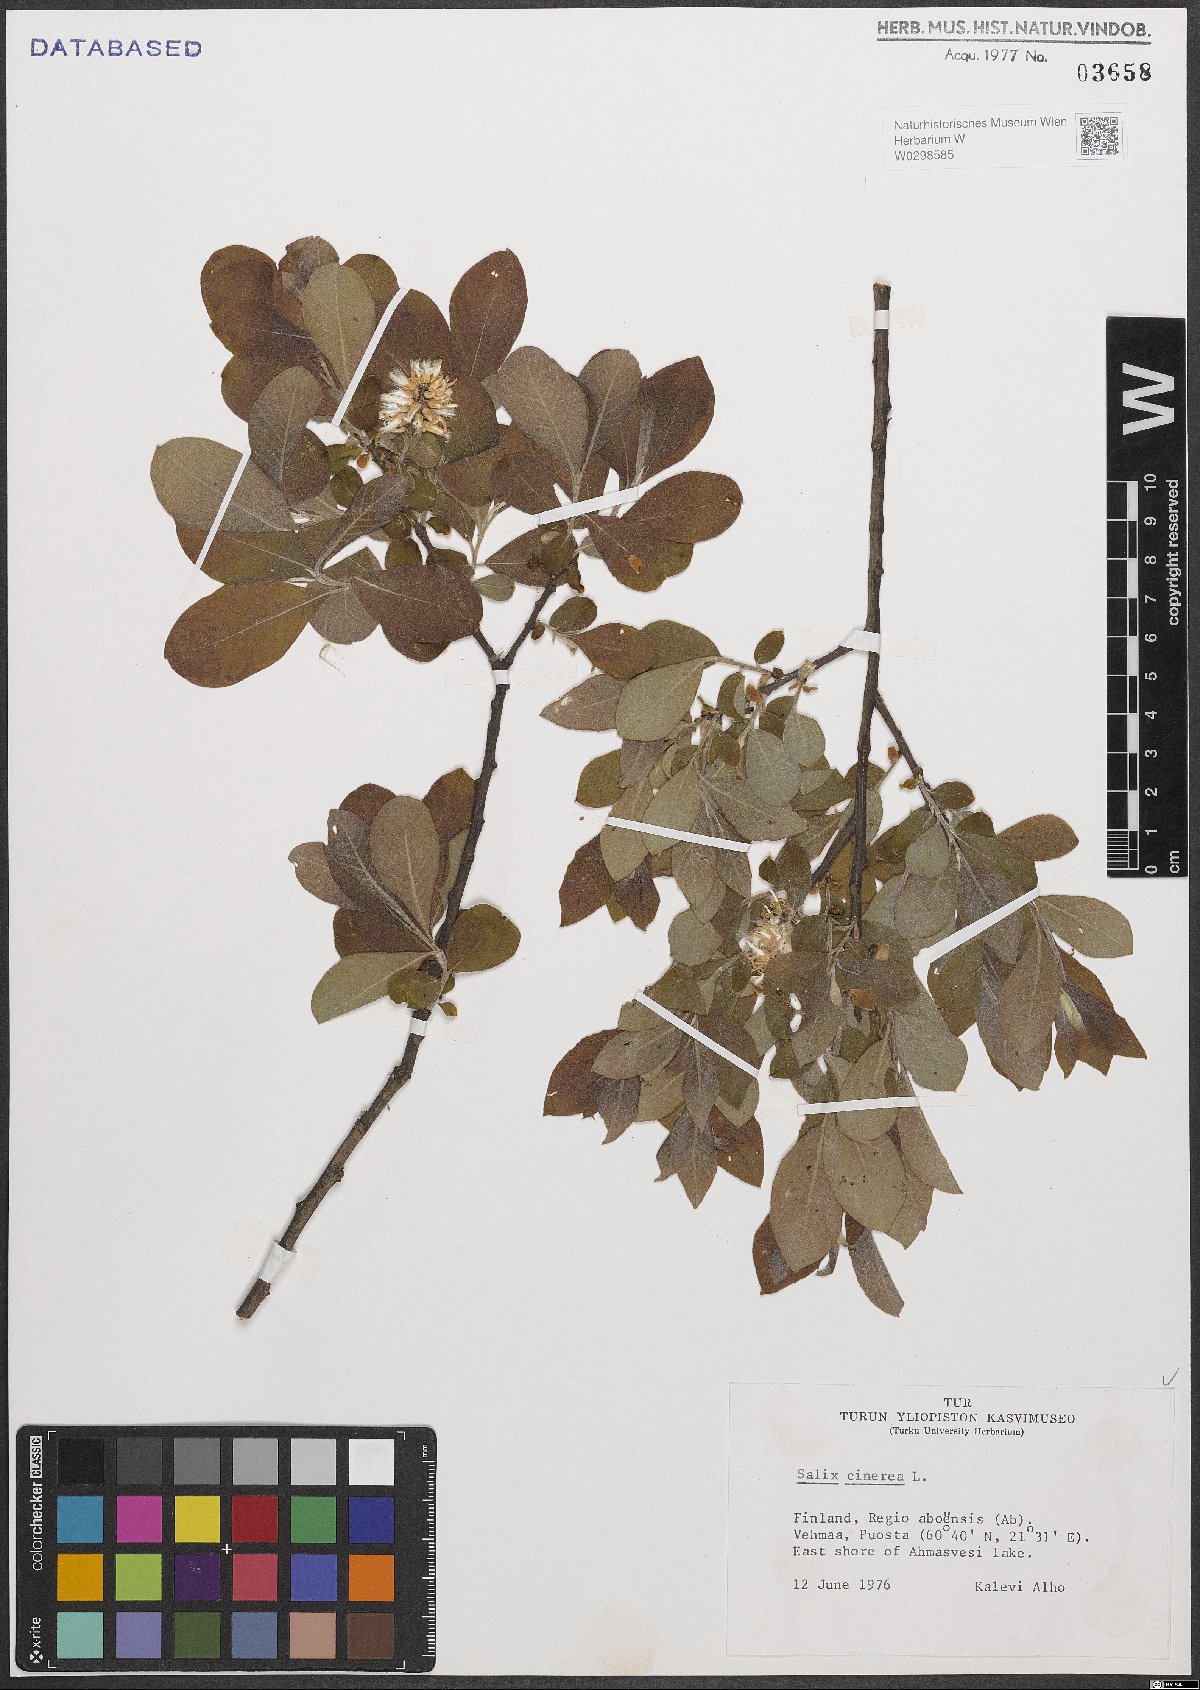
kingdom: Plantae
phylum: Tracheophyta
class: Magnoliopsida
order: Malpighiales
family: Salicaceae
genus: Salix
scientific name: Salix cinerea
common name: Common sallow
